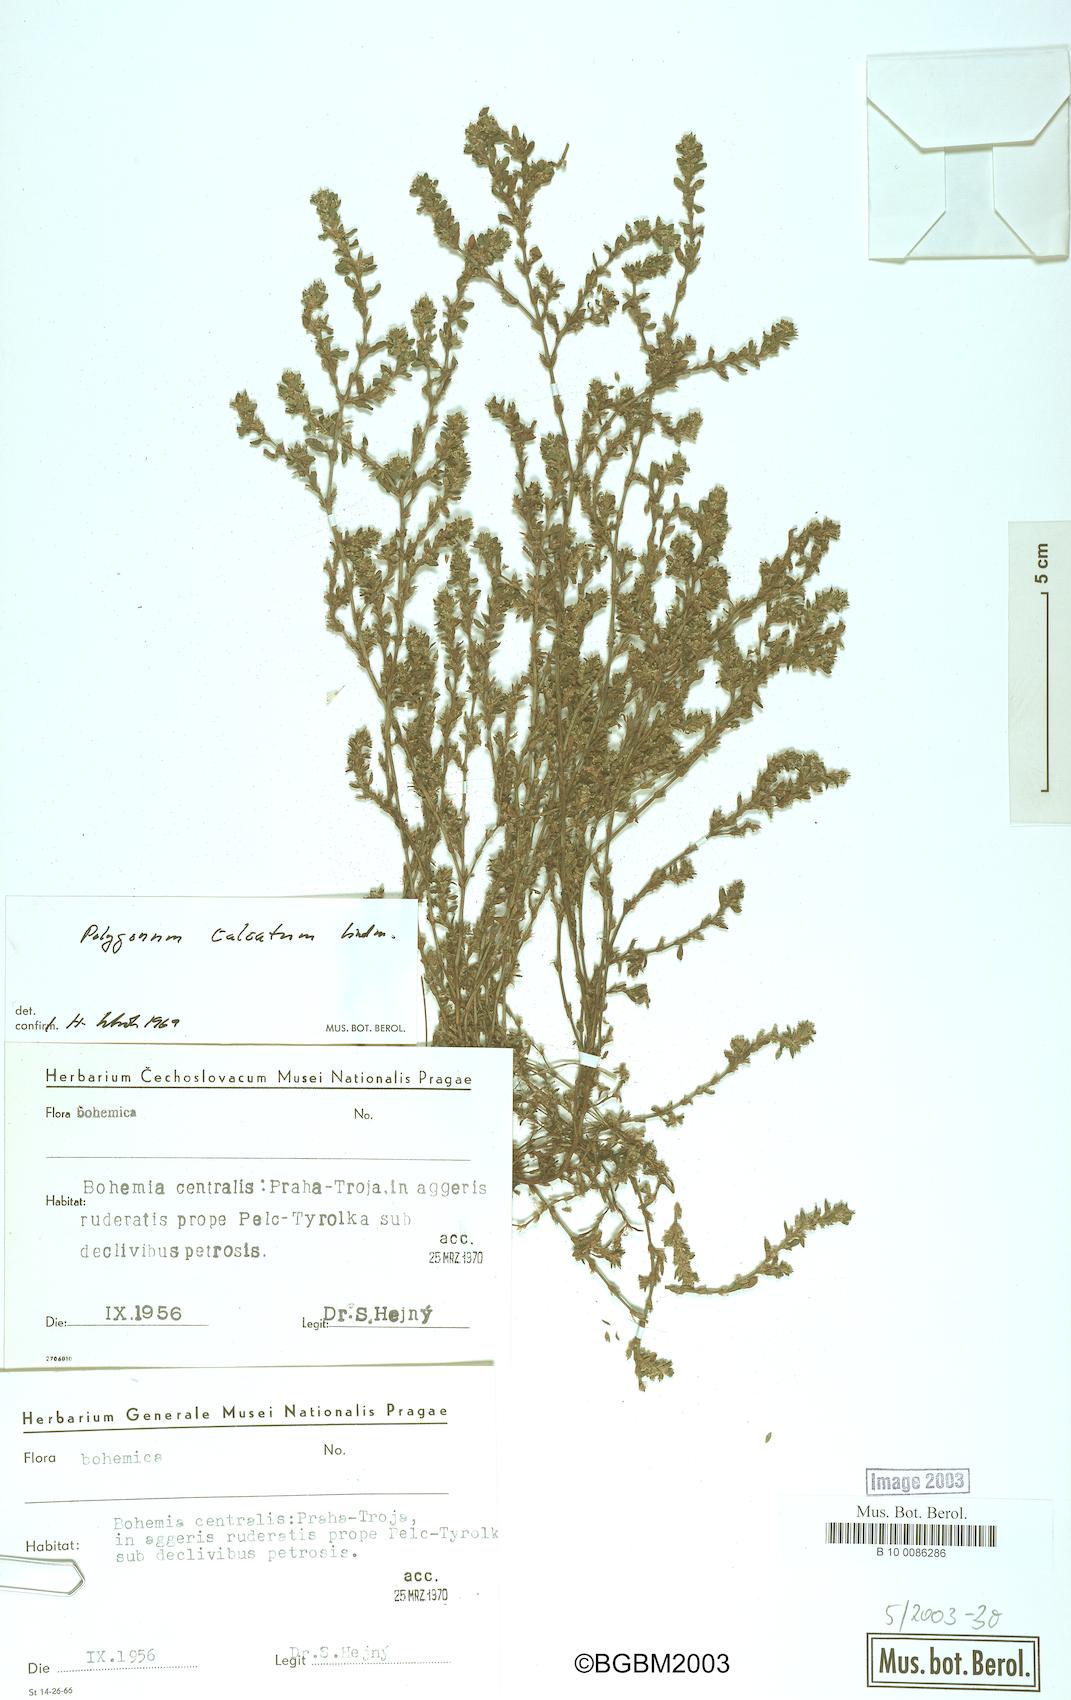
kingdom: Plantae
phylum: Tracheophyta
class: Magnoliopsida
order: Caryophyllales
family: Polygonaceae
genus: Polygonum
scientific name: Polygonum arenastrum
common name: Equal-leaved knotgrass
